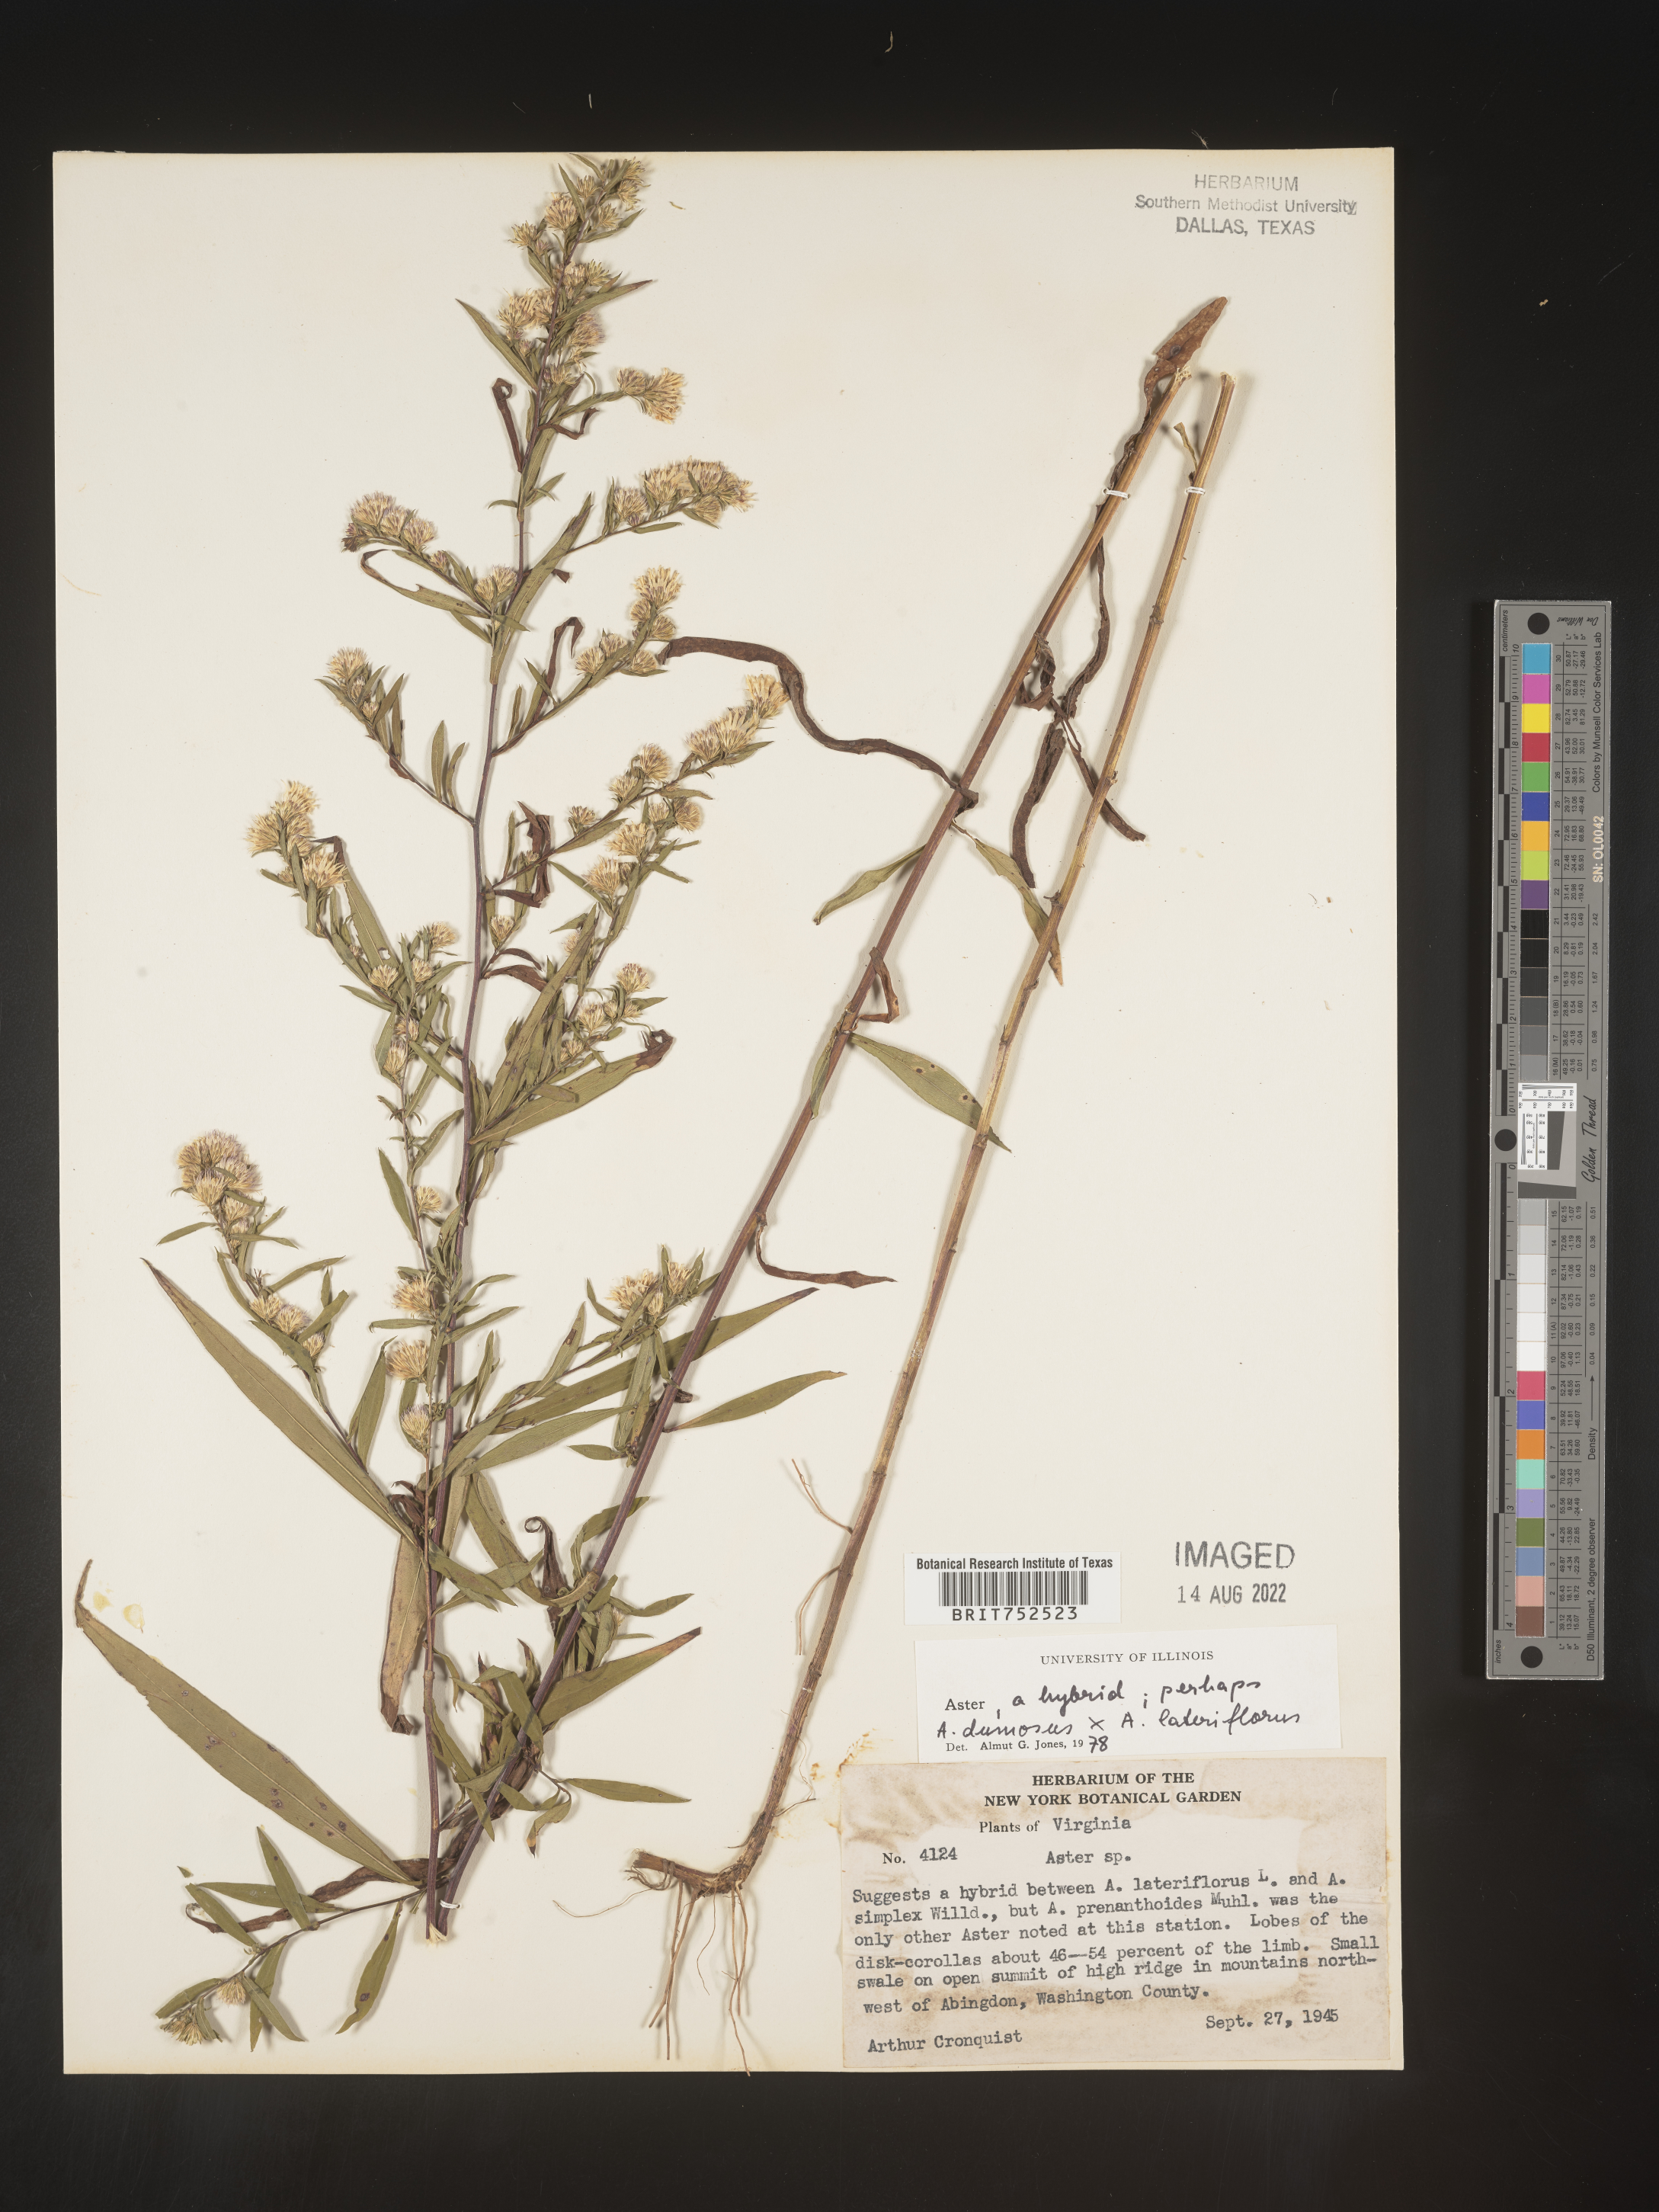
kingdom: Plantae
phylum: Tracheophyta
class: Magnoliopsida
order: Asterales
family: Asteraceae
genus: Symphyotrichum
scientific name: Symphyotrichum lanceolatum
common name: Panicled aster
